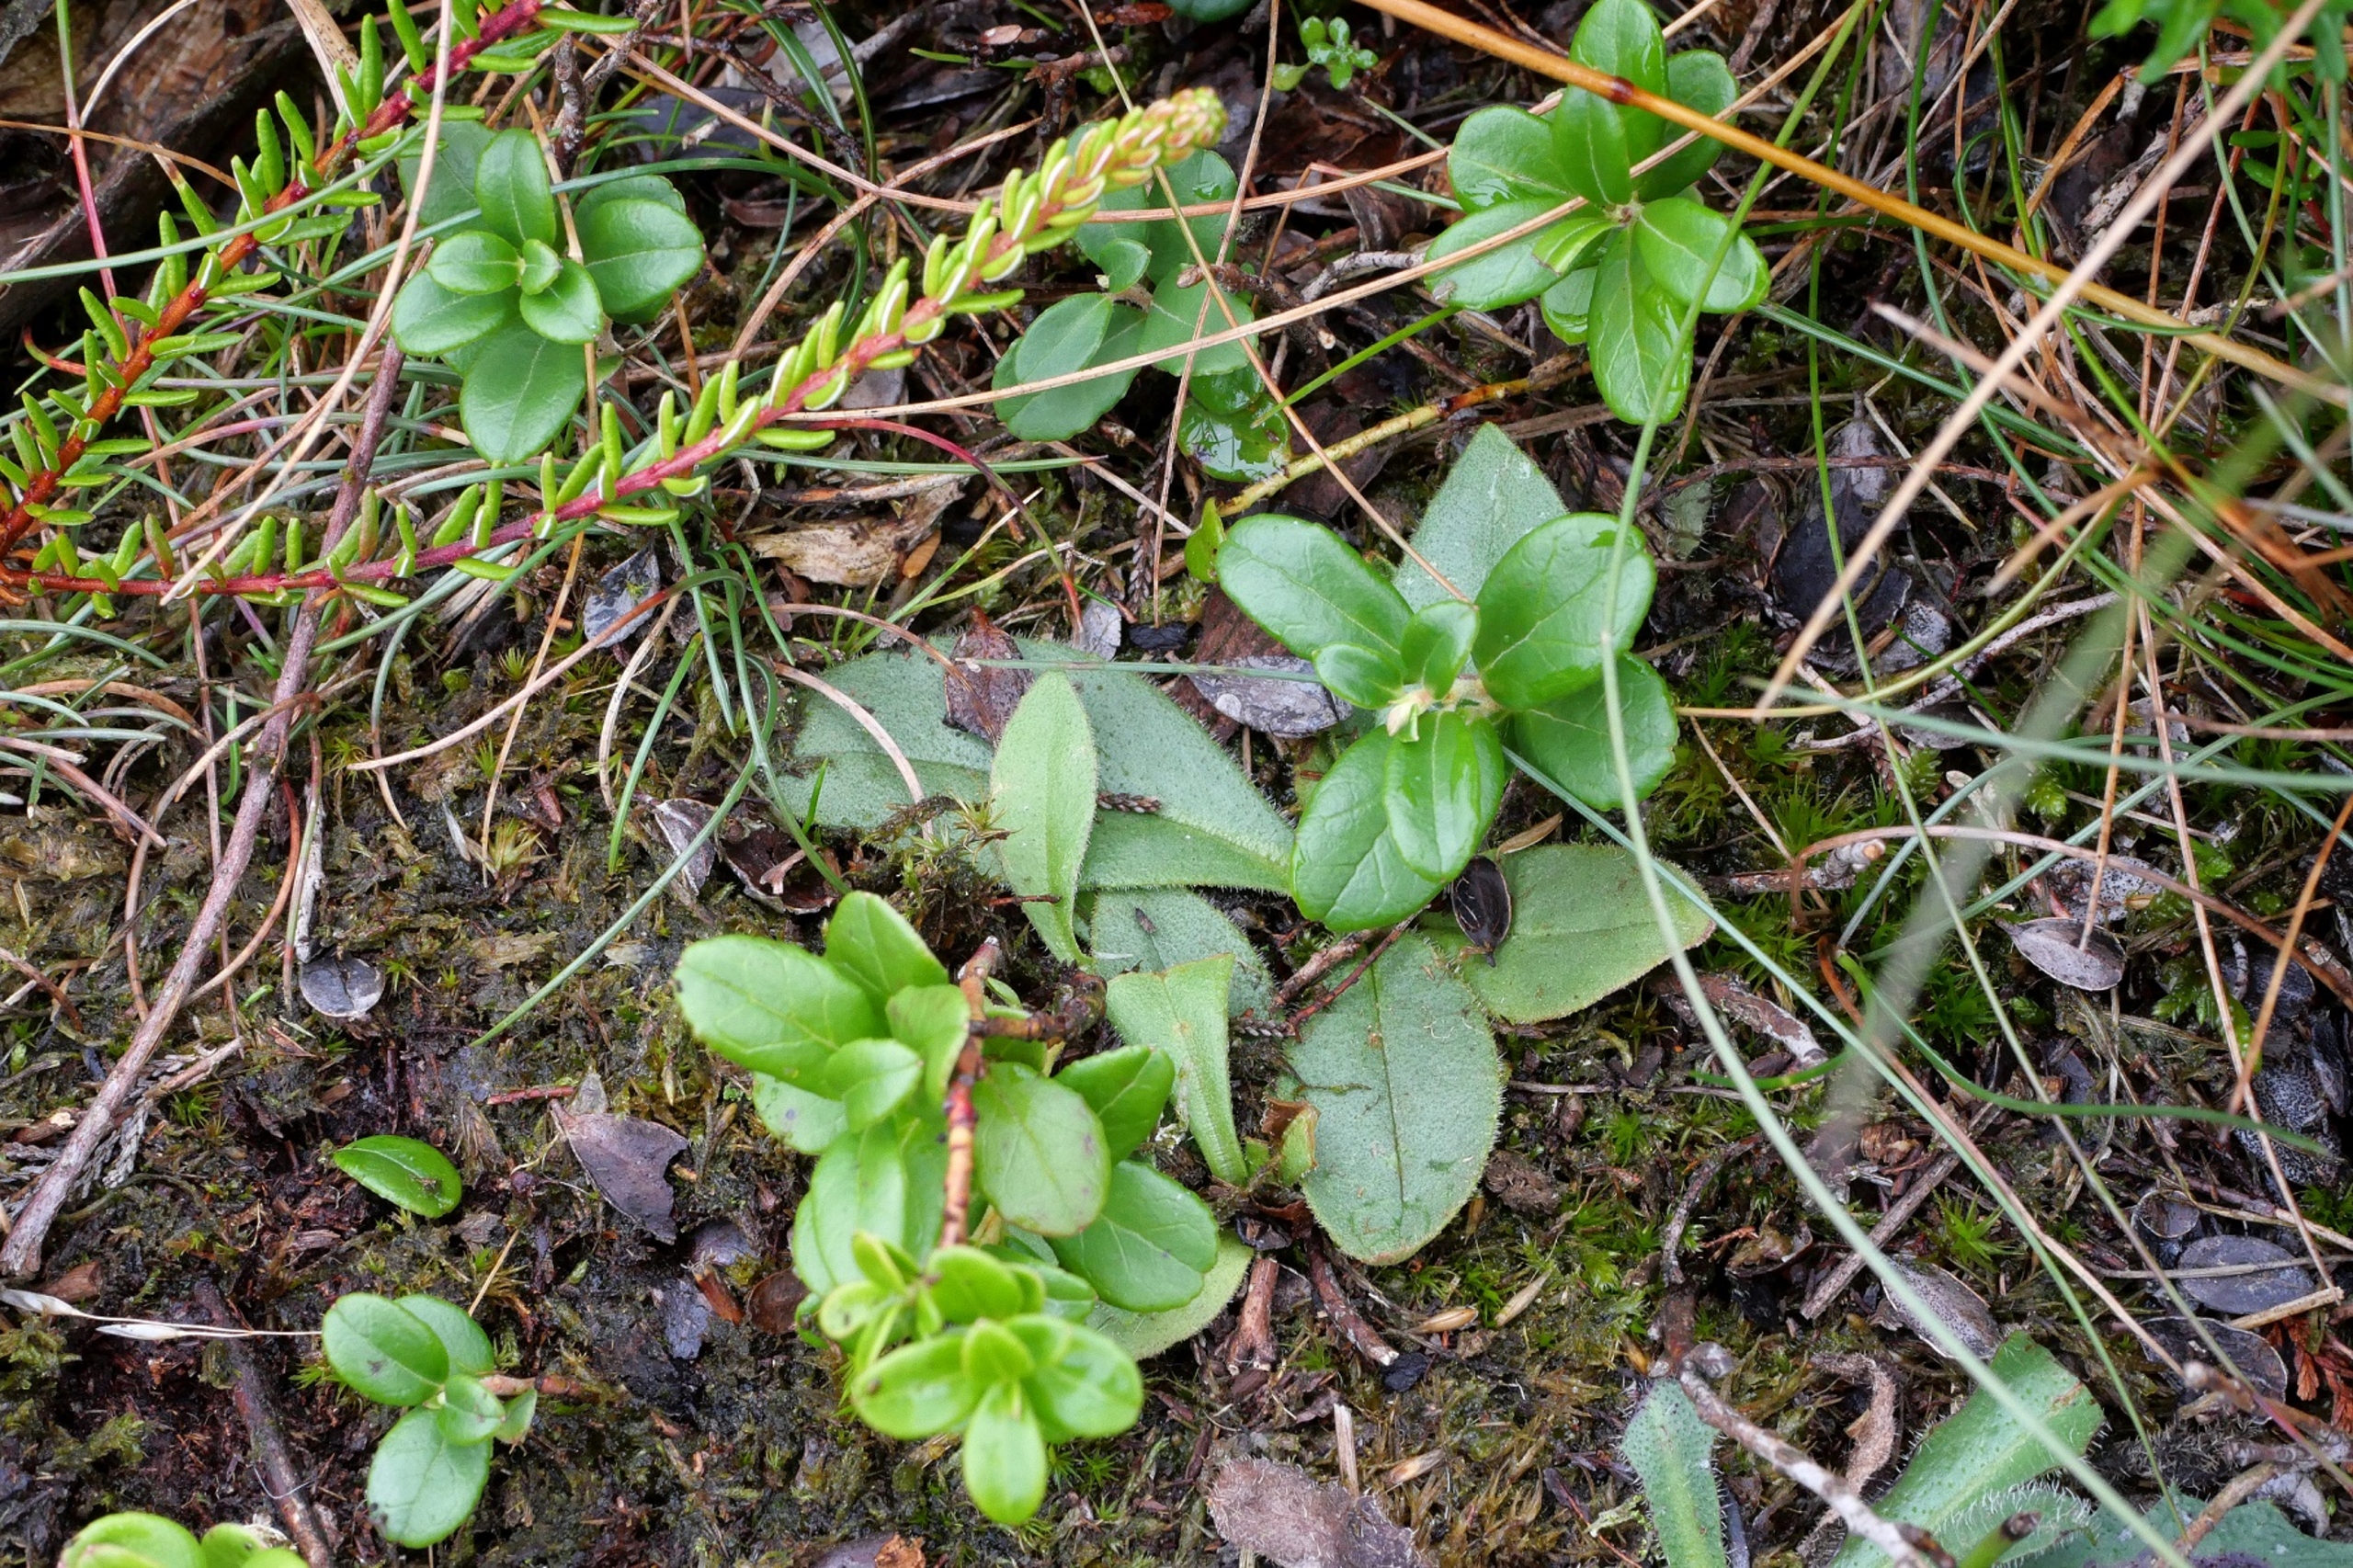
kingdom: Plantae
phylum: Tracheophyta
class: Magnoliopsida
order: Asterales
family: Asteraceae
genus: Arnica
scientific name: Arnica montana
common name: Guldblomme
